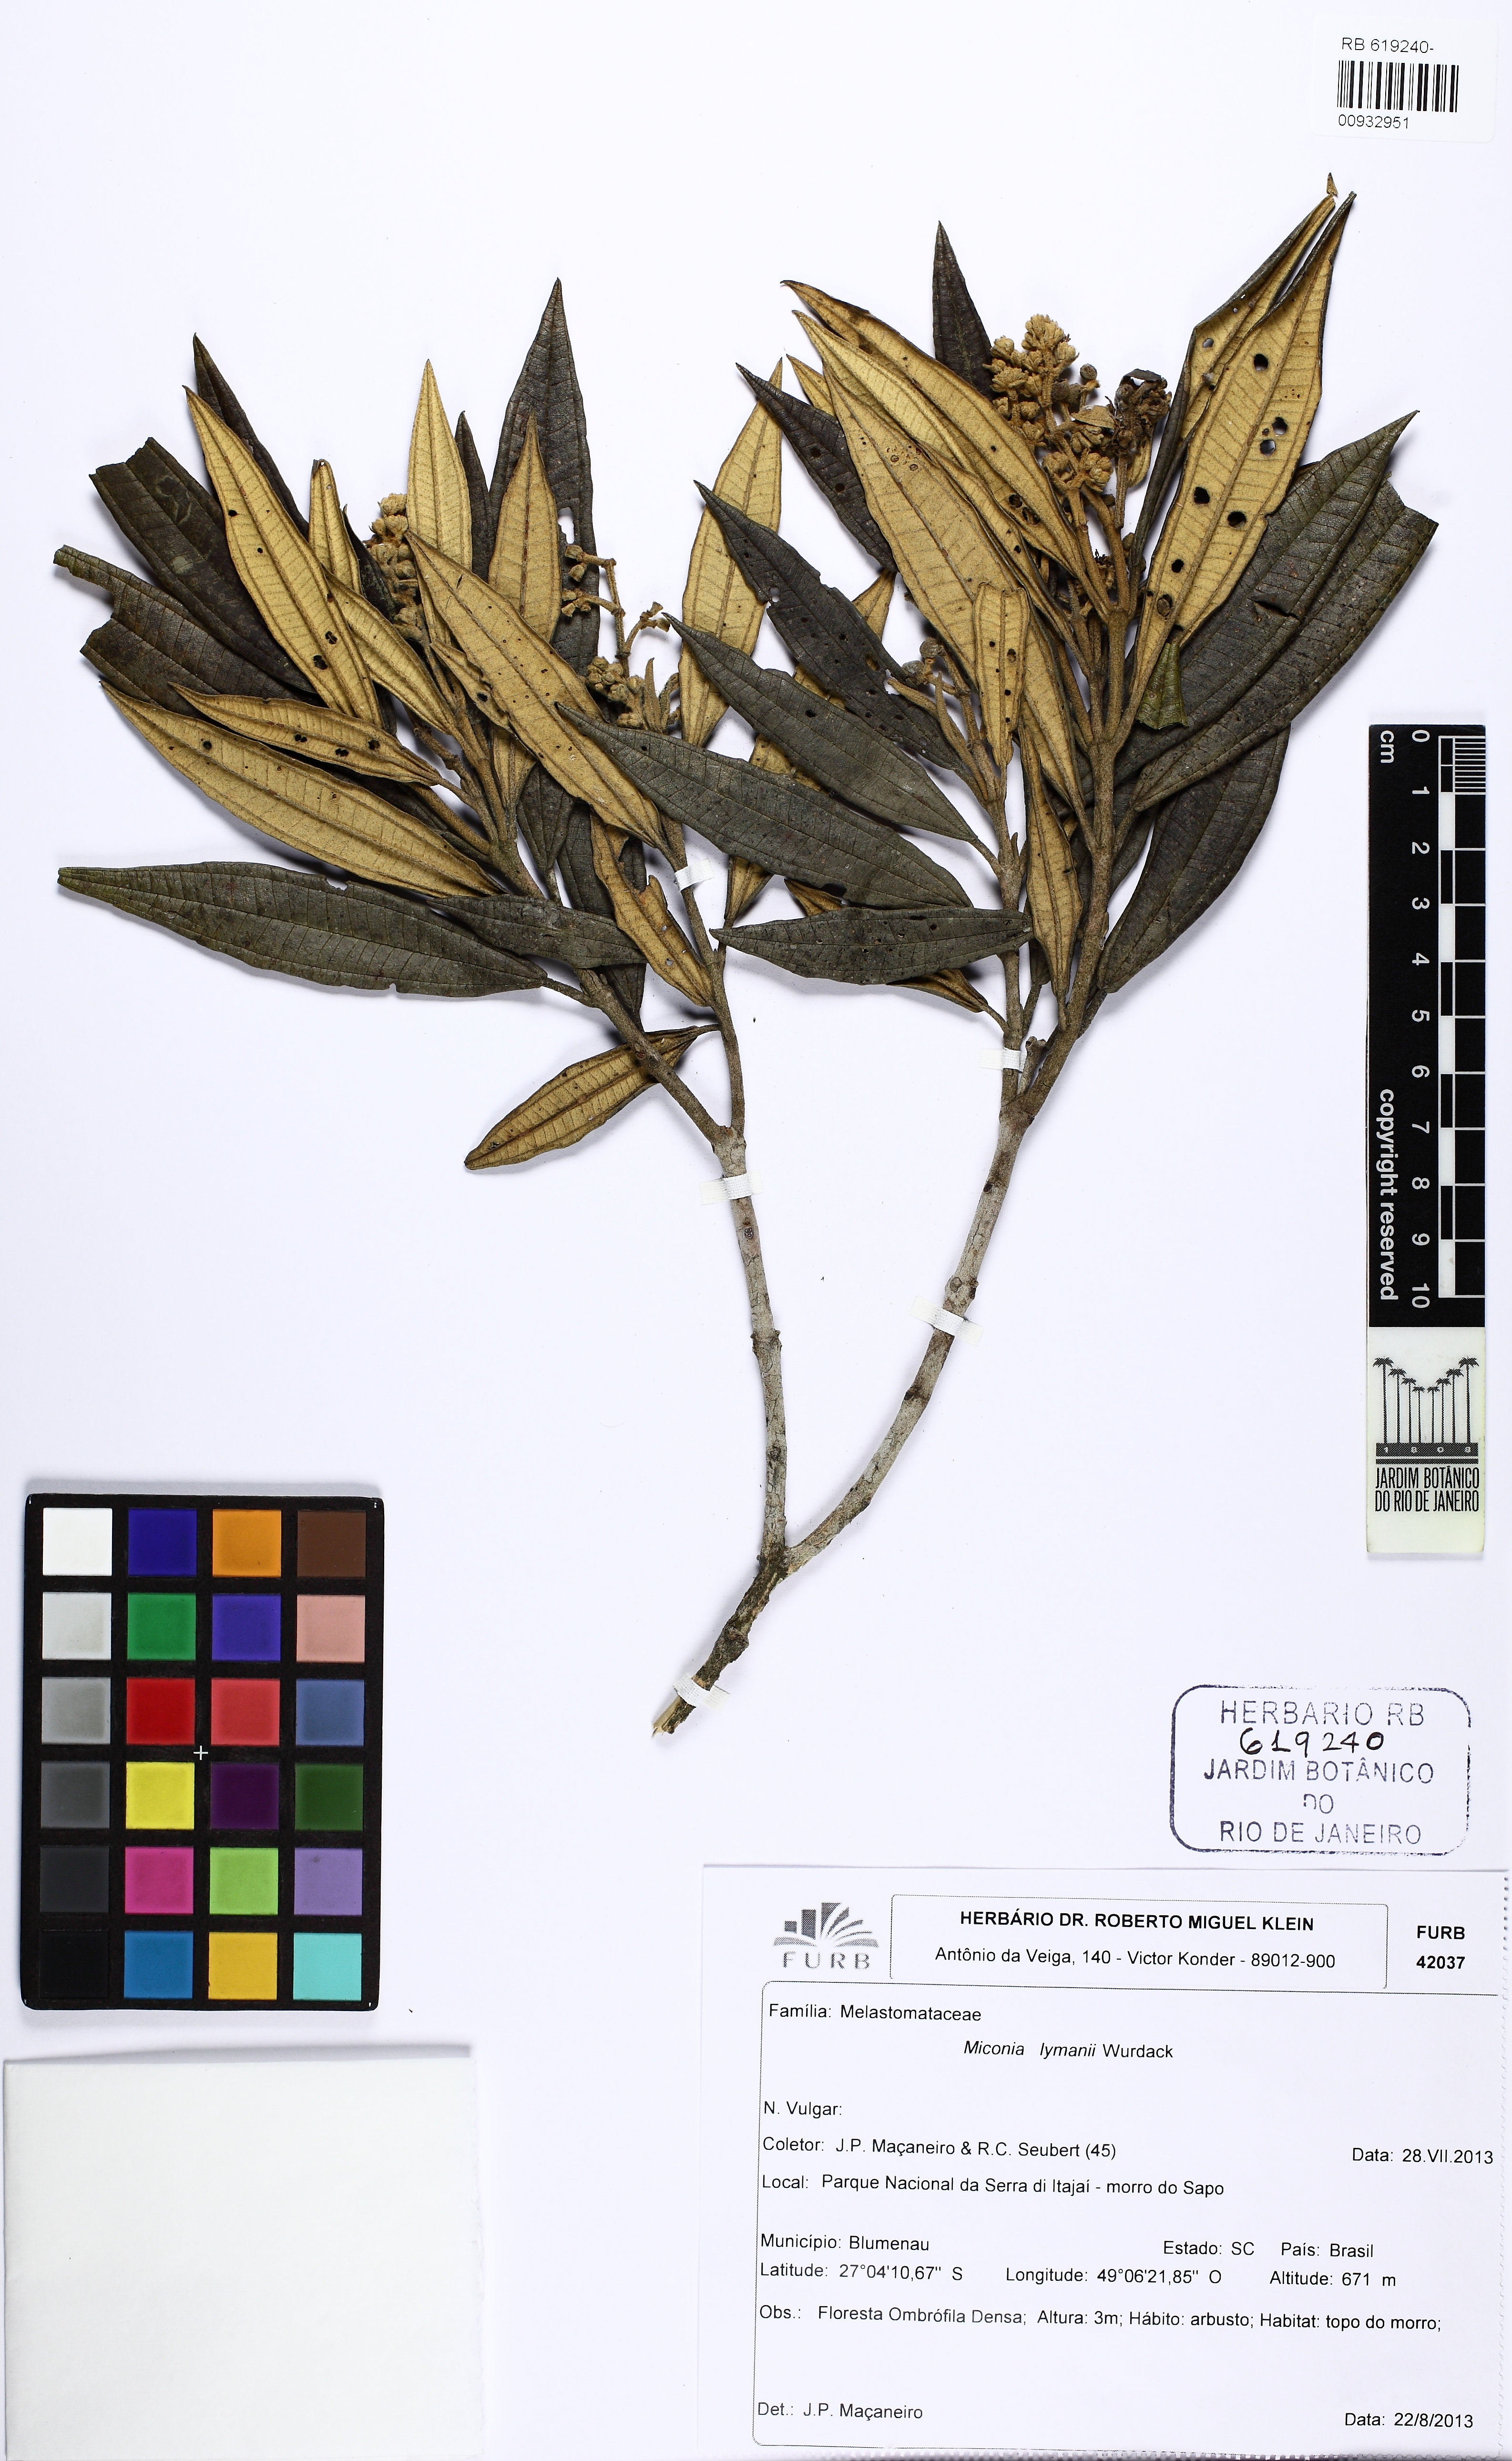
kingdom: Plantae
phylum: Tracheophyta
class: Magnoliopsida
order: Myrtales
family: Melastomataceae
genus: Miconia
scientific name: Miconia lymanii
